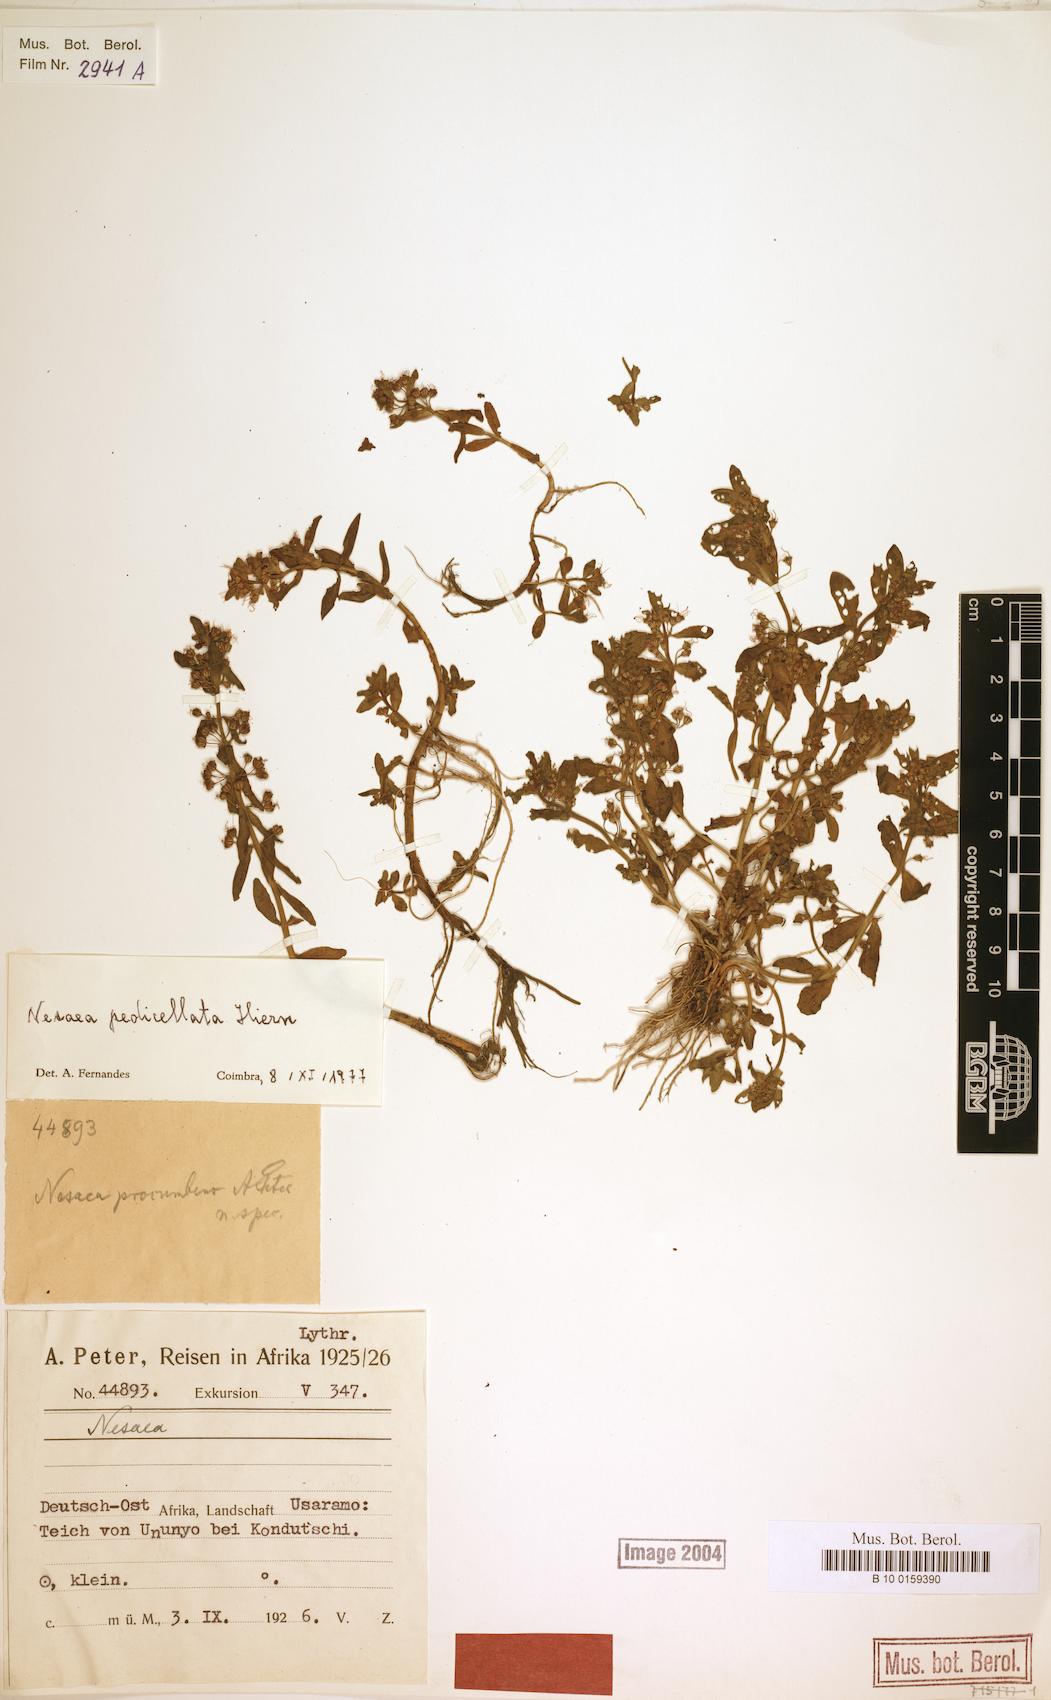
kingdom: Plantae
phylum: Tracheophyta
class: Magnoliopsida
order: Myrtales
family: Lythraceae
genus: Ammannia
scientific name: Ammannia pedicellata
